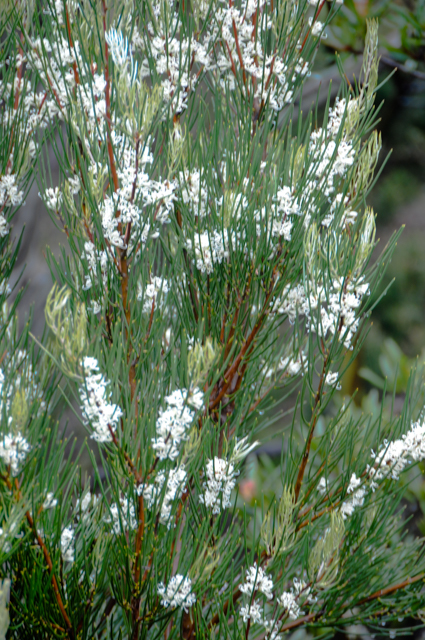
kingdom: Plantae
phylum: Tracheophyta
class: Magnoliopsida
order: Proteales
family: Proteaceae
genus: Hakea
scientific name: Hakea megadenia
